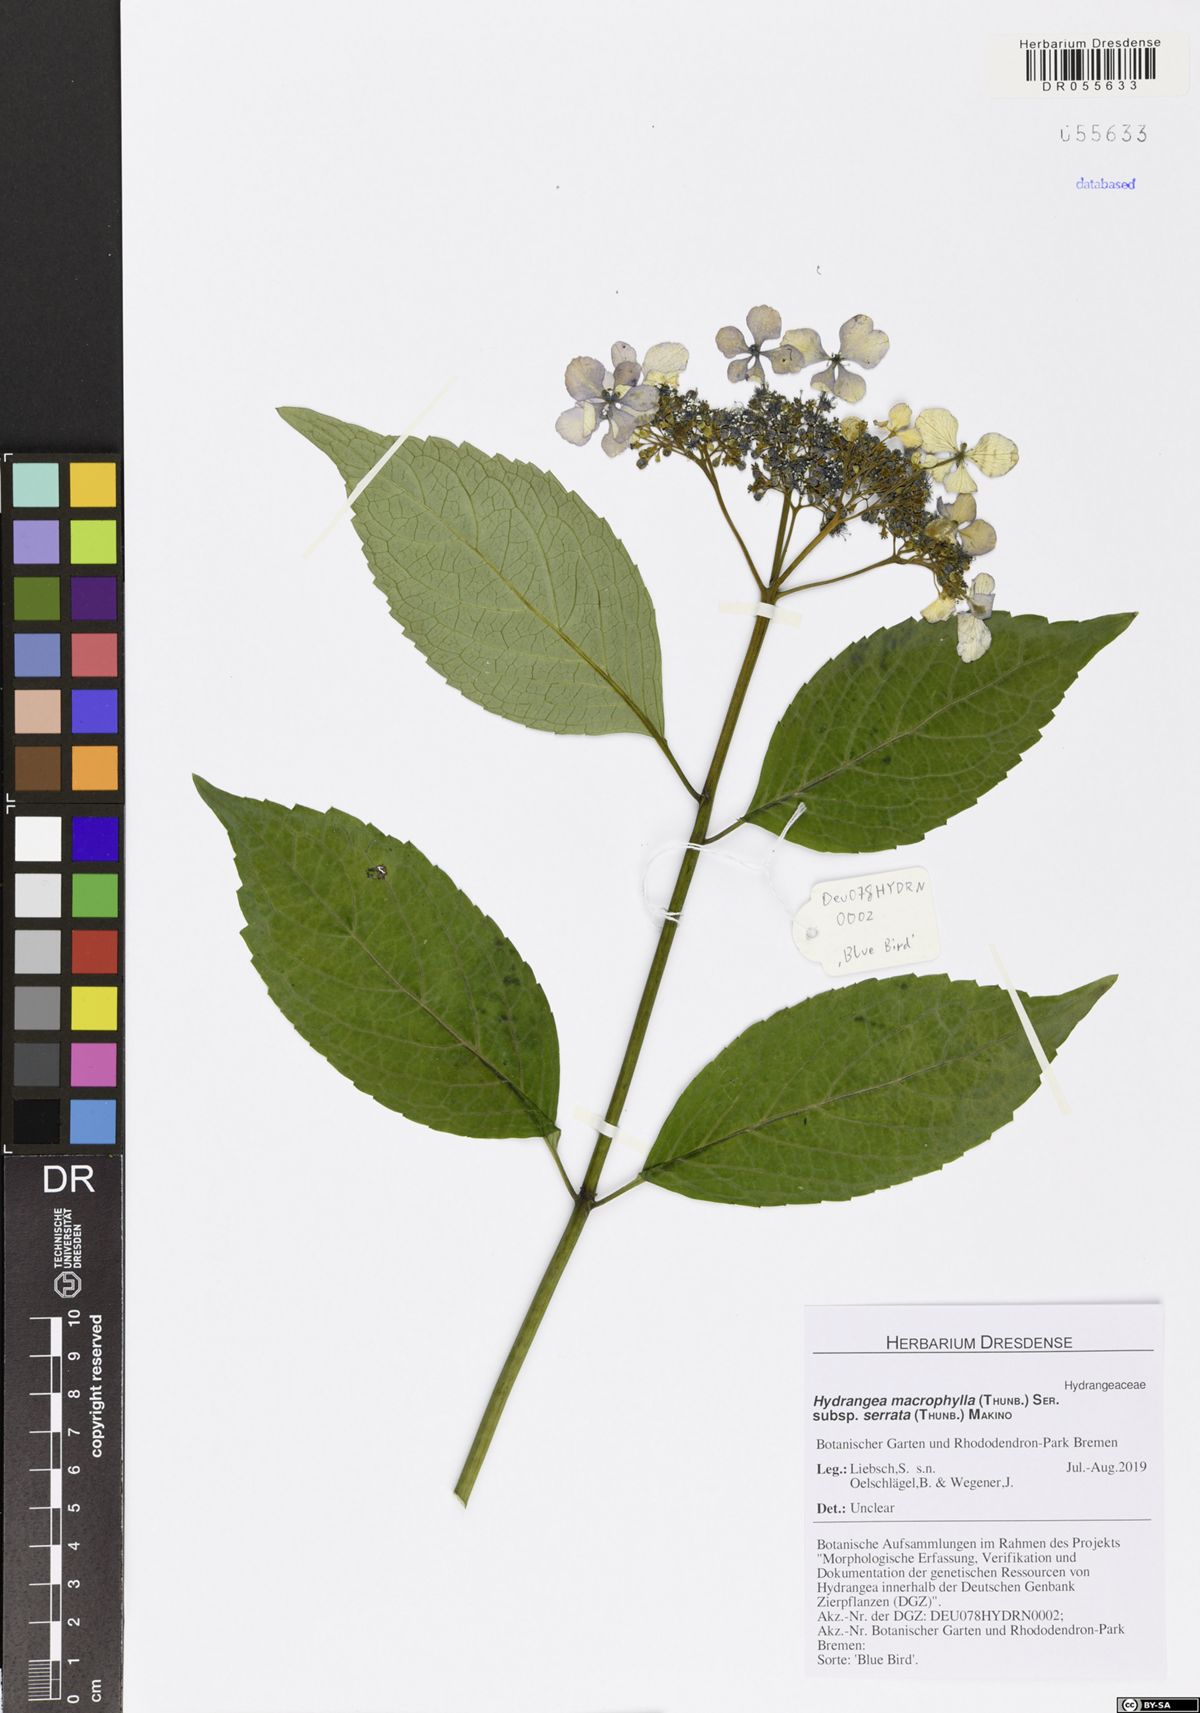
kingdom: Plantae
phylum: Tracheophyta
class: Magnoliopsida
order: Cornales
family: Hydrangeaceae
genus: Hydrangea
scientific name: Hydrangea serrata
